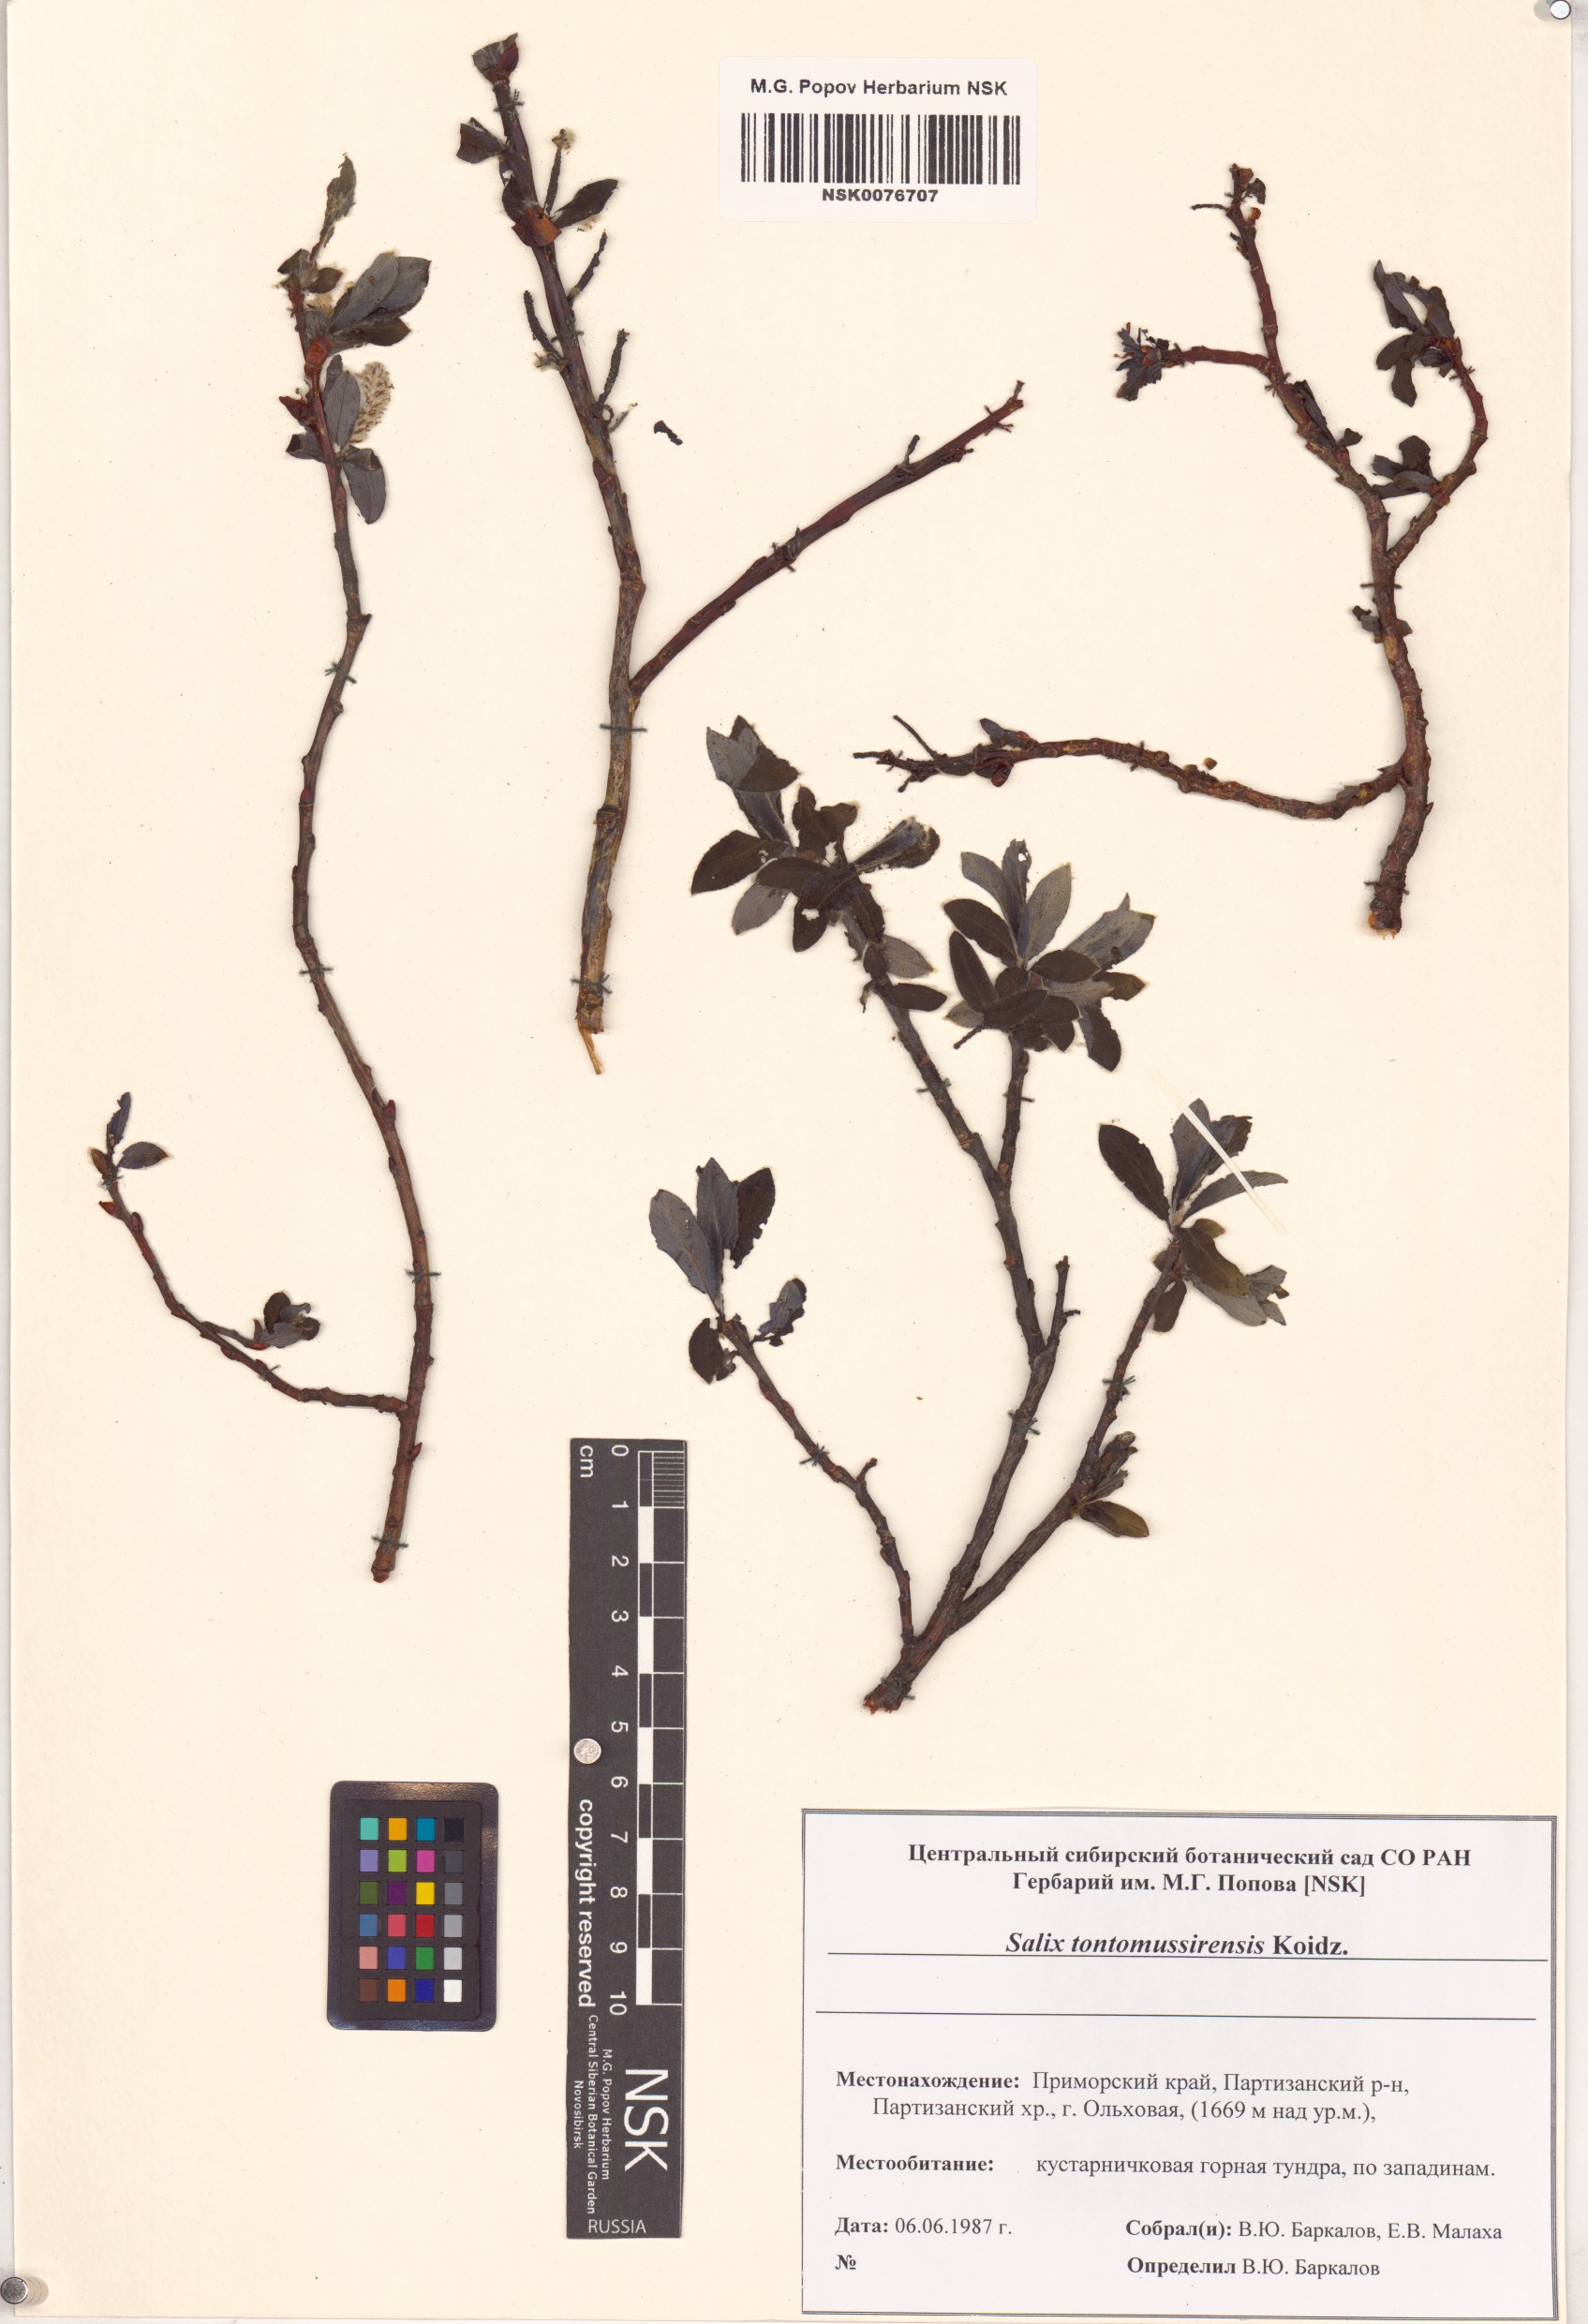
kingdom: Plantae
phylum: Tracheophyta
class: Magnoliopsida
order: Malpighiales
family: Salicaceae
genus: Salix
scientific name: Salix reinii
